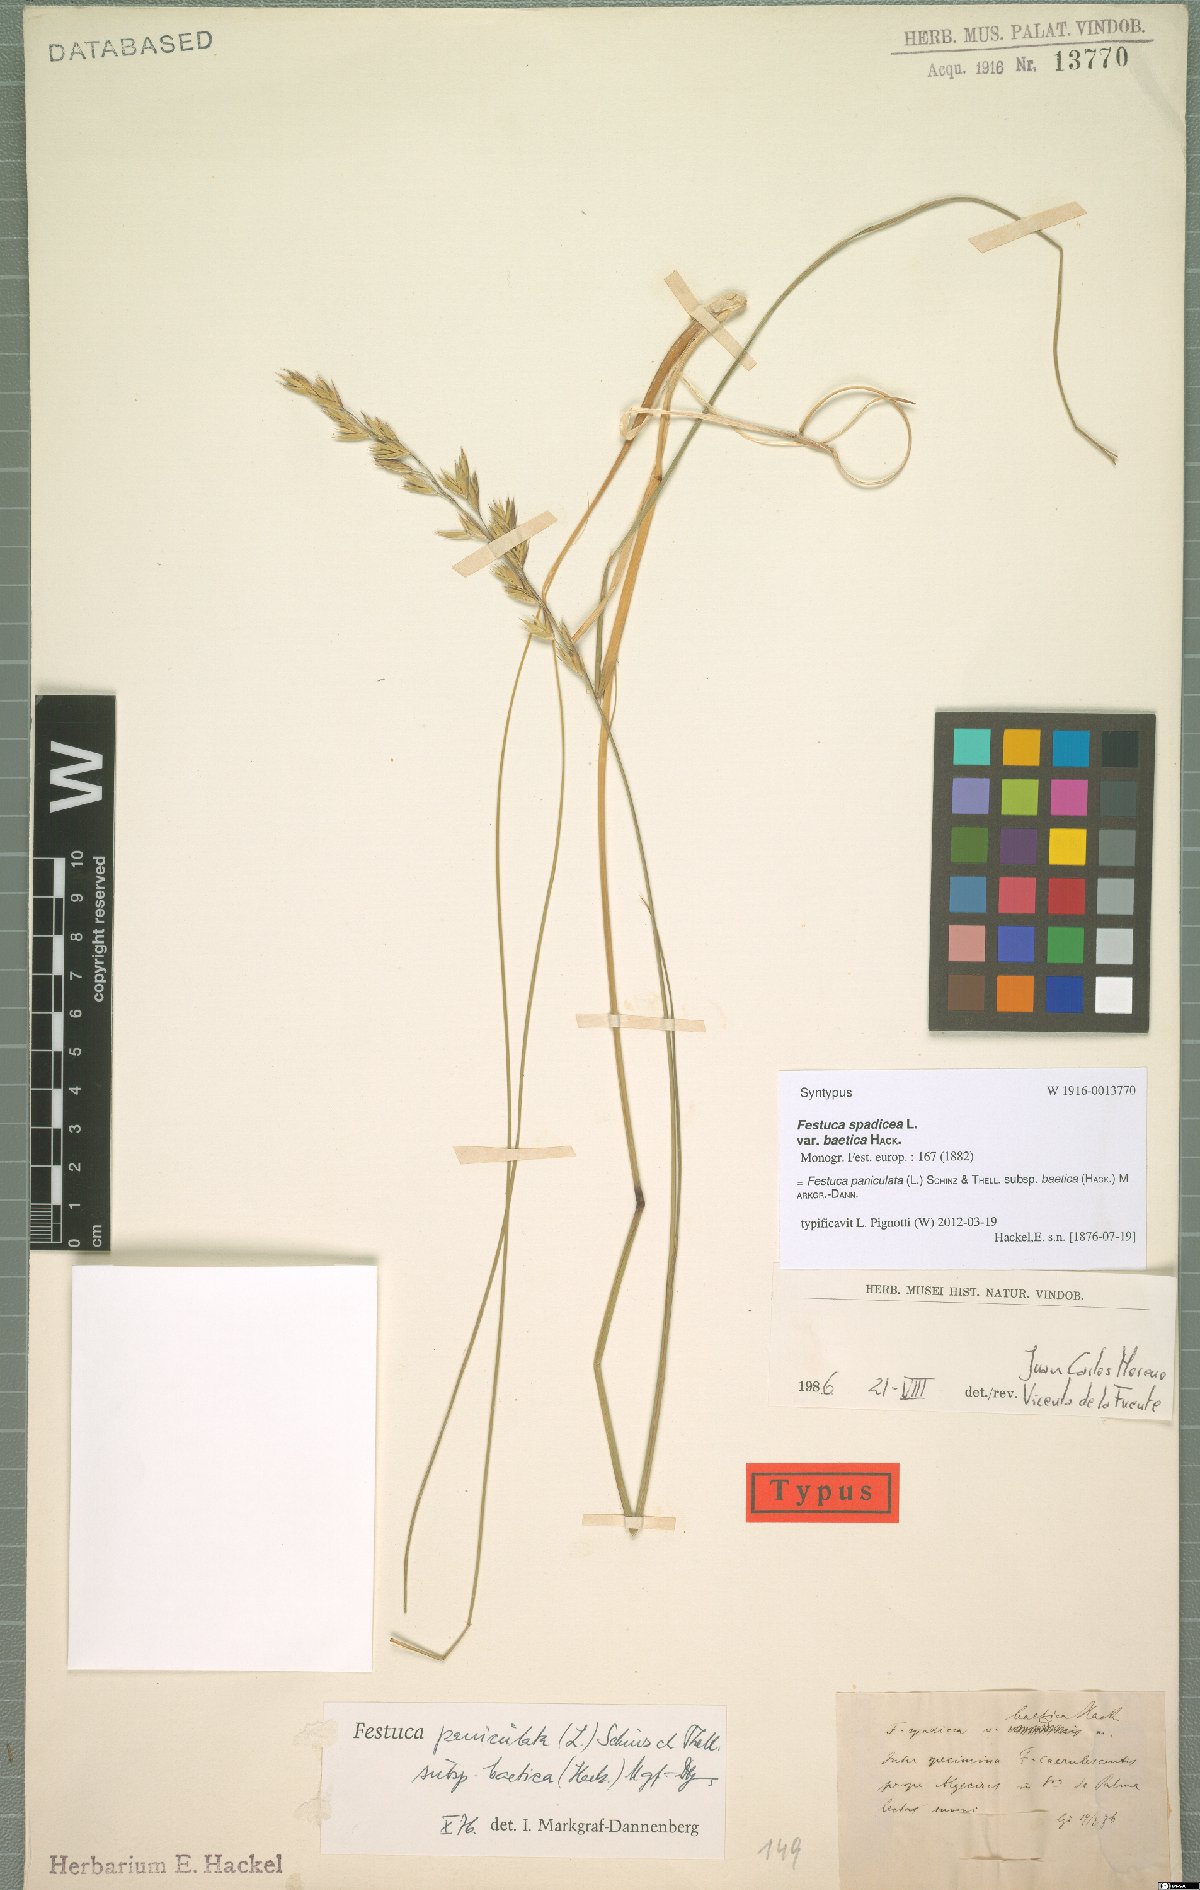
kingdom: Plantae
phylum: Tracheophyta
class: Liliopsida
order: Poales
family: Poaceae
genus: Patzkea
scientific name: Patzkea paniculata
